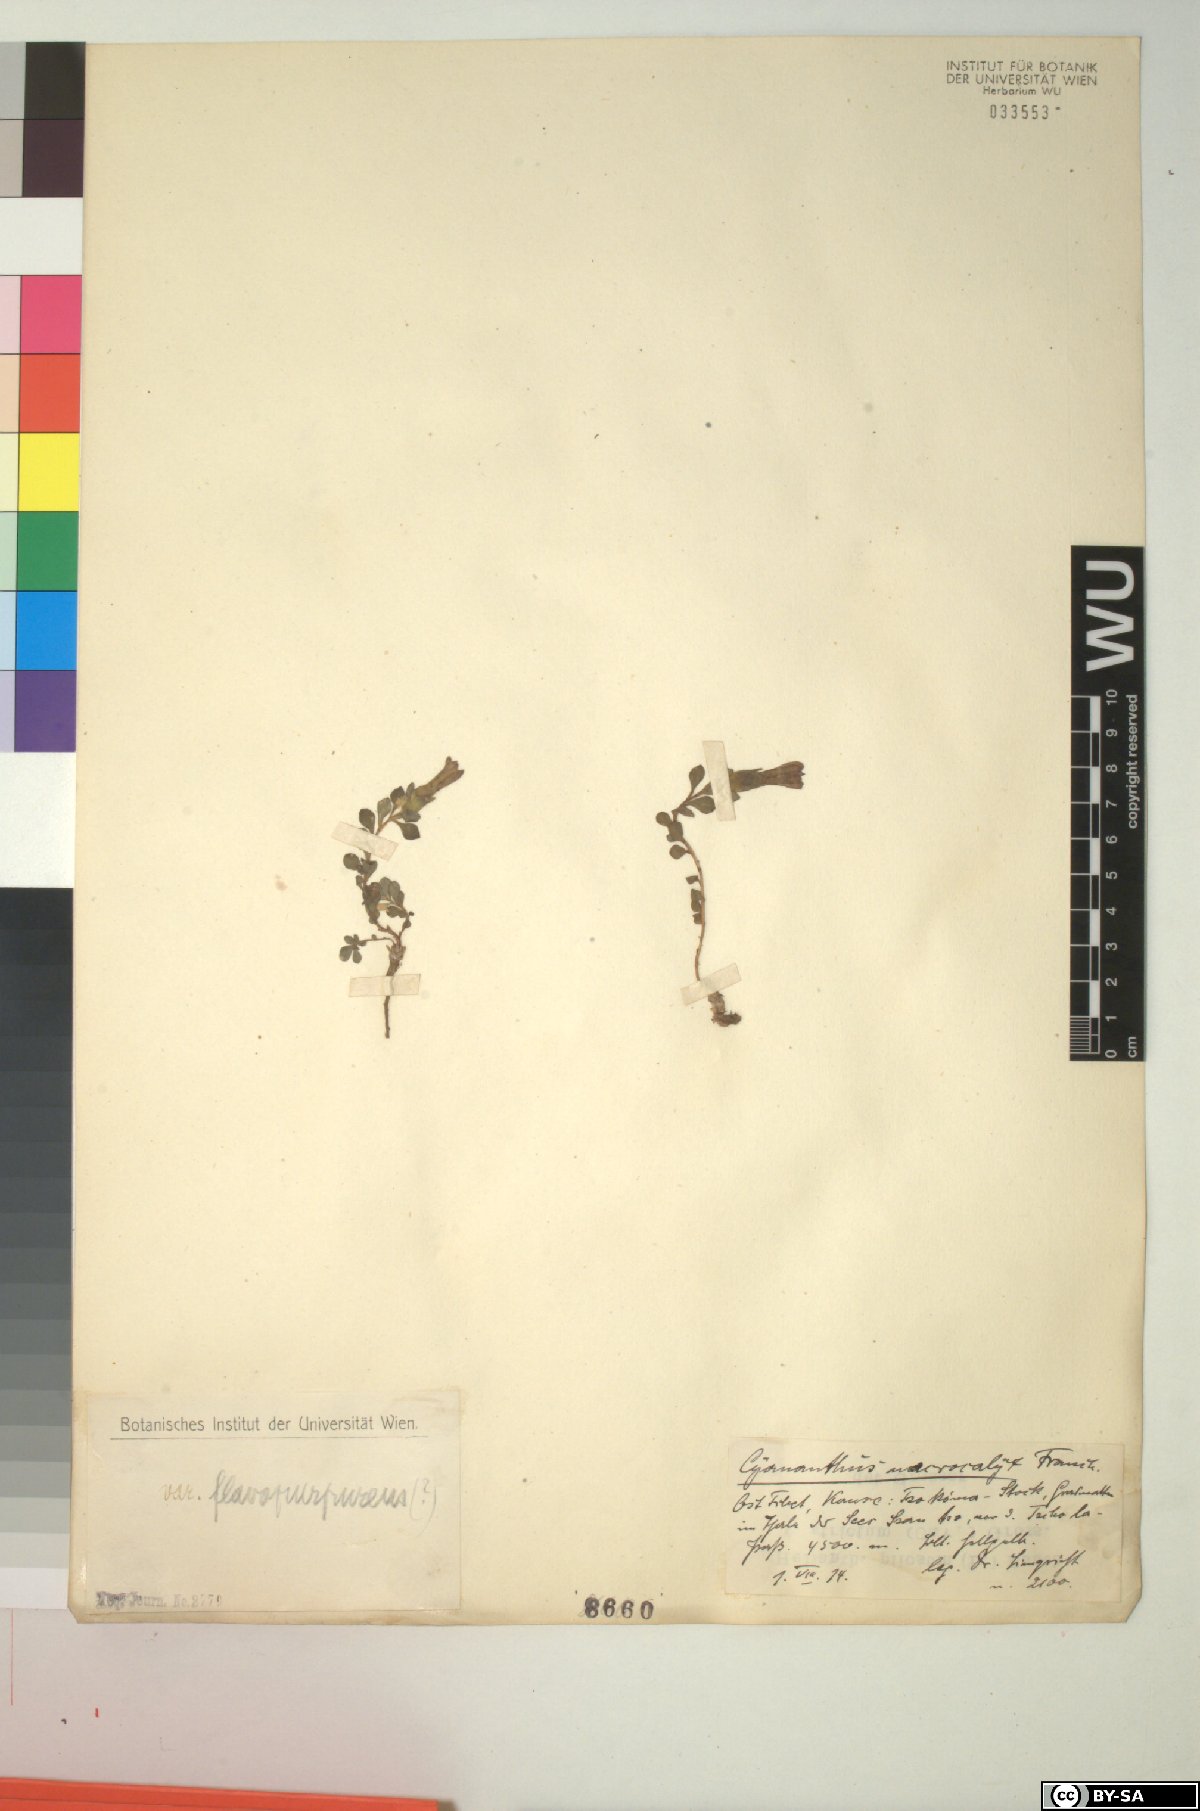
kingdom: Plantae
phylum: Tracheophyta
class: Magnoliopsida
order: Asterales
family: Campanulaceae
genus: Cyananthus
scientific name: Cyananthus macrocalyx
